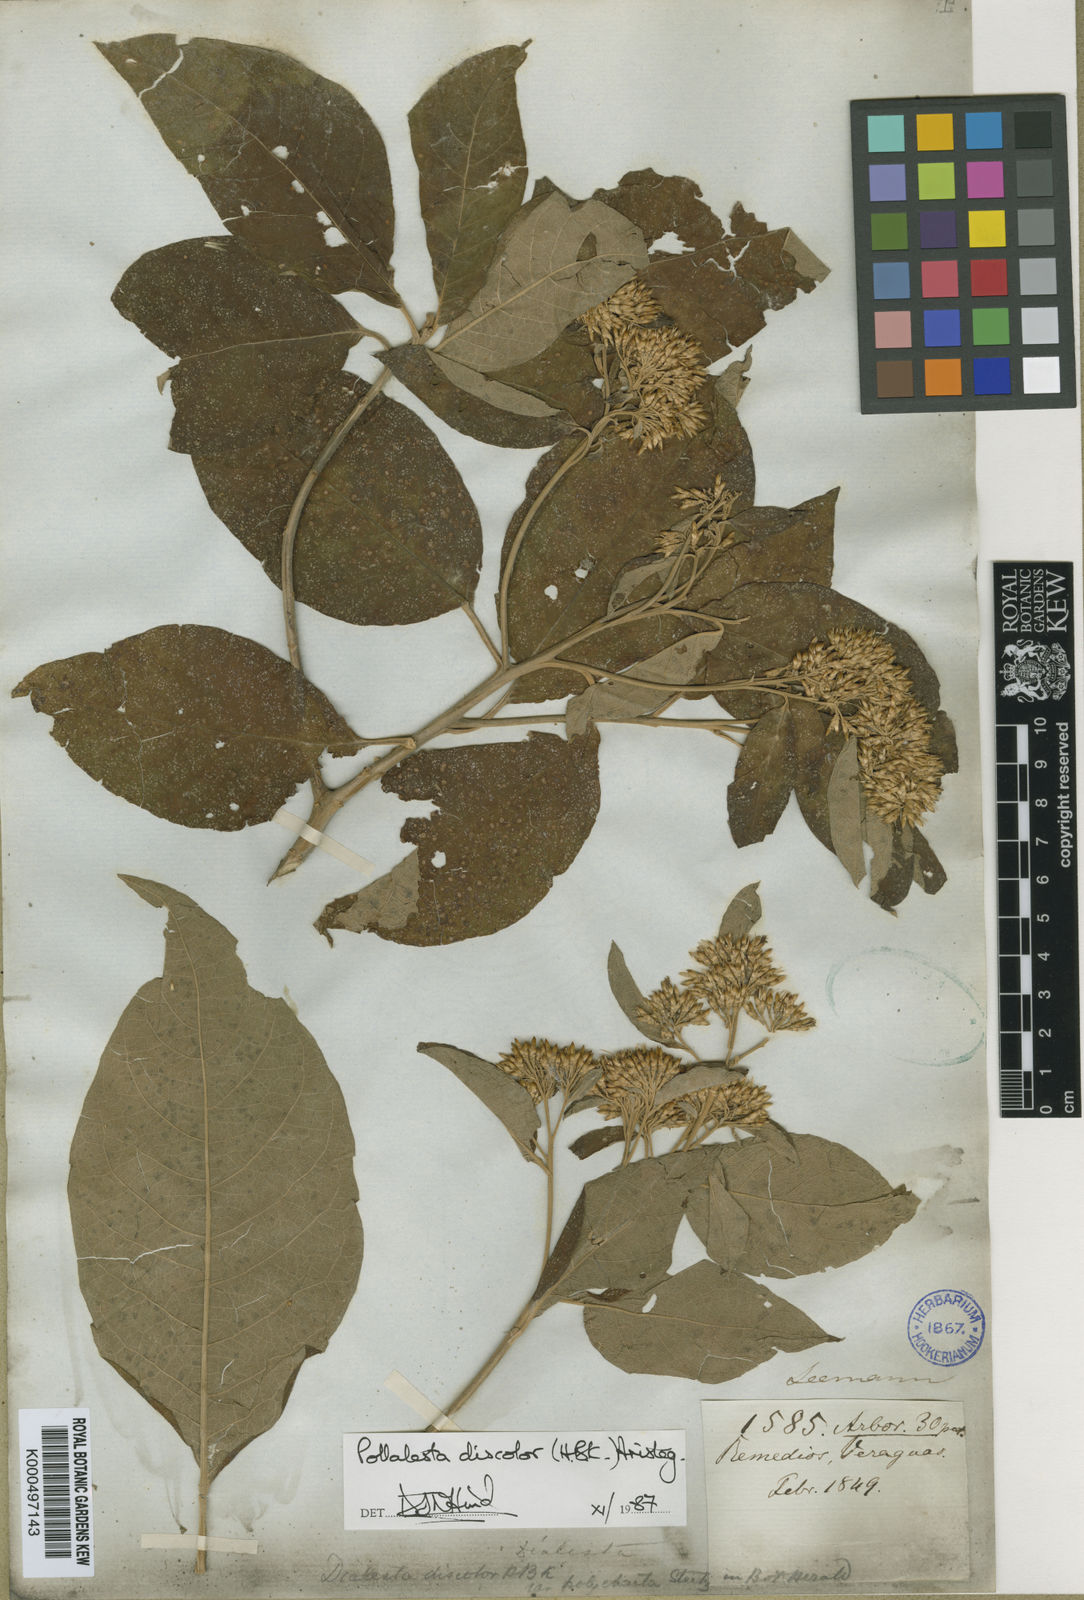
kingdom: Plantae
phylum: Tracheophyta
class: Magnoliopsida
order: Asterales
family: Asteraceae
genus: Piptocoma
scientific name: Piptocoma discolor
